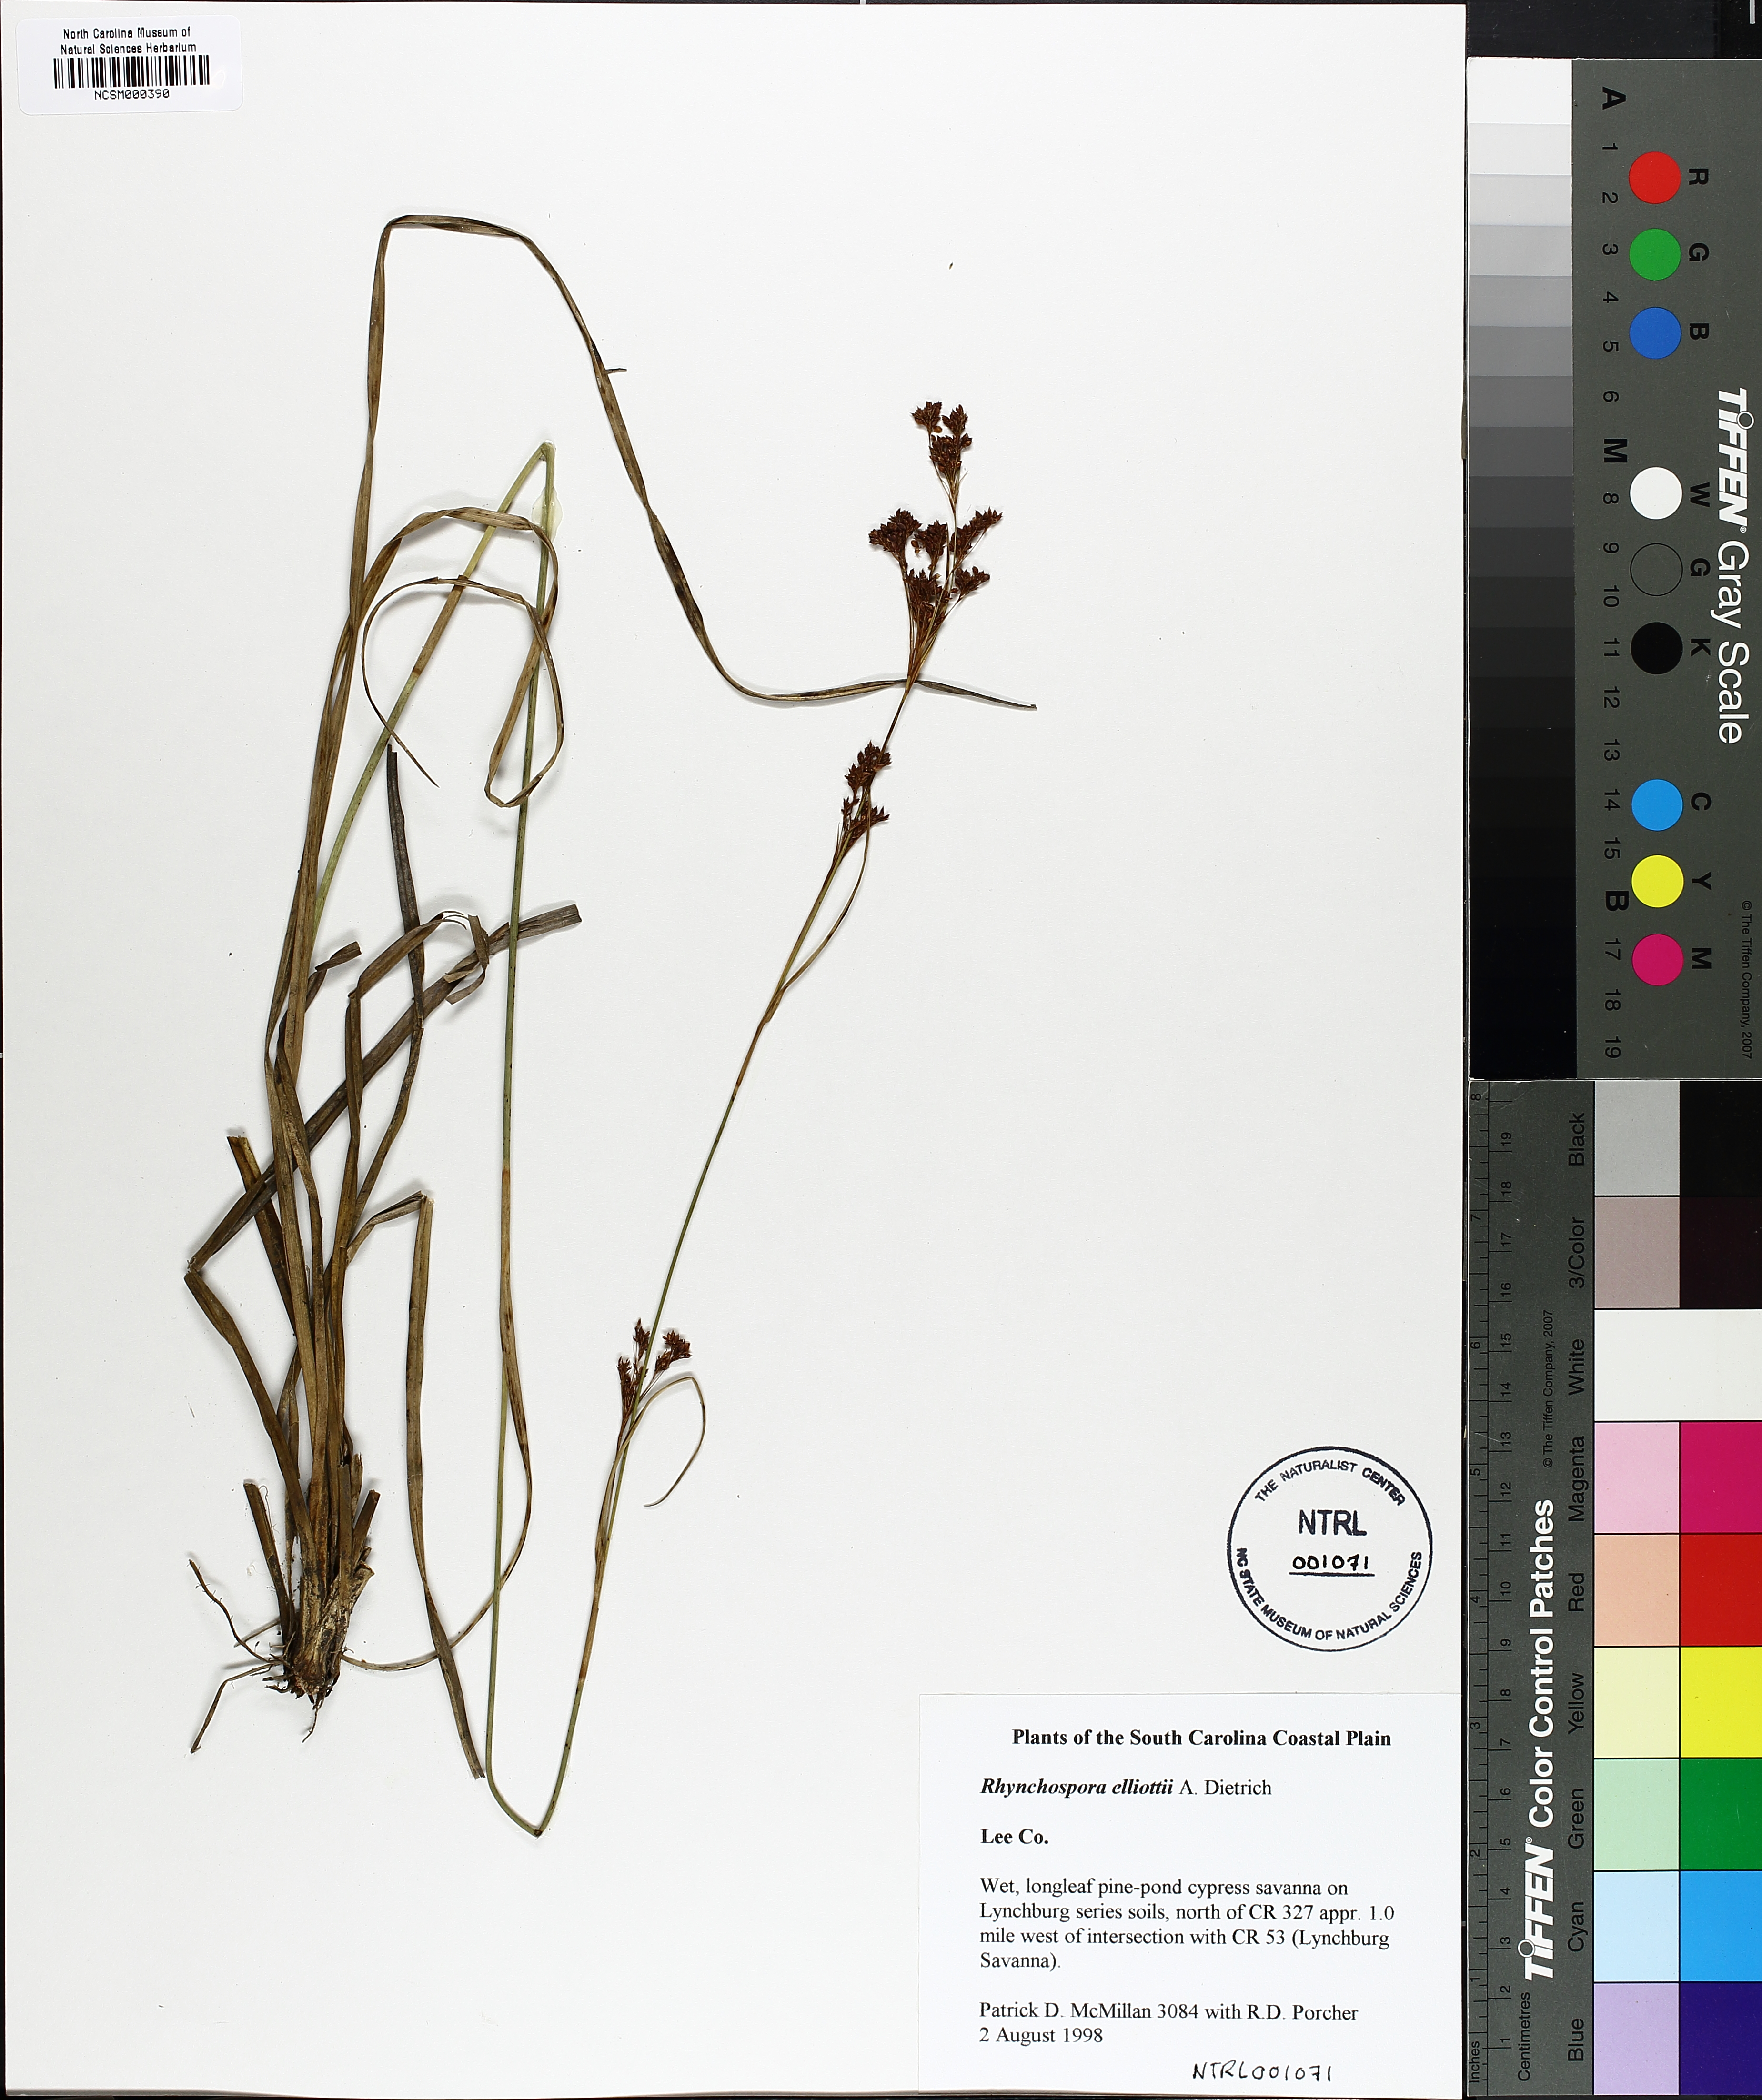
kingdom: Plantae
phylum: Tracheophyta
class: Liliopsida
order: Poales
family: Cyperaceae
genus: Rhynchospora
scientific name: Rhynchospora elliottii
